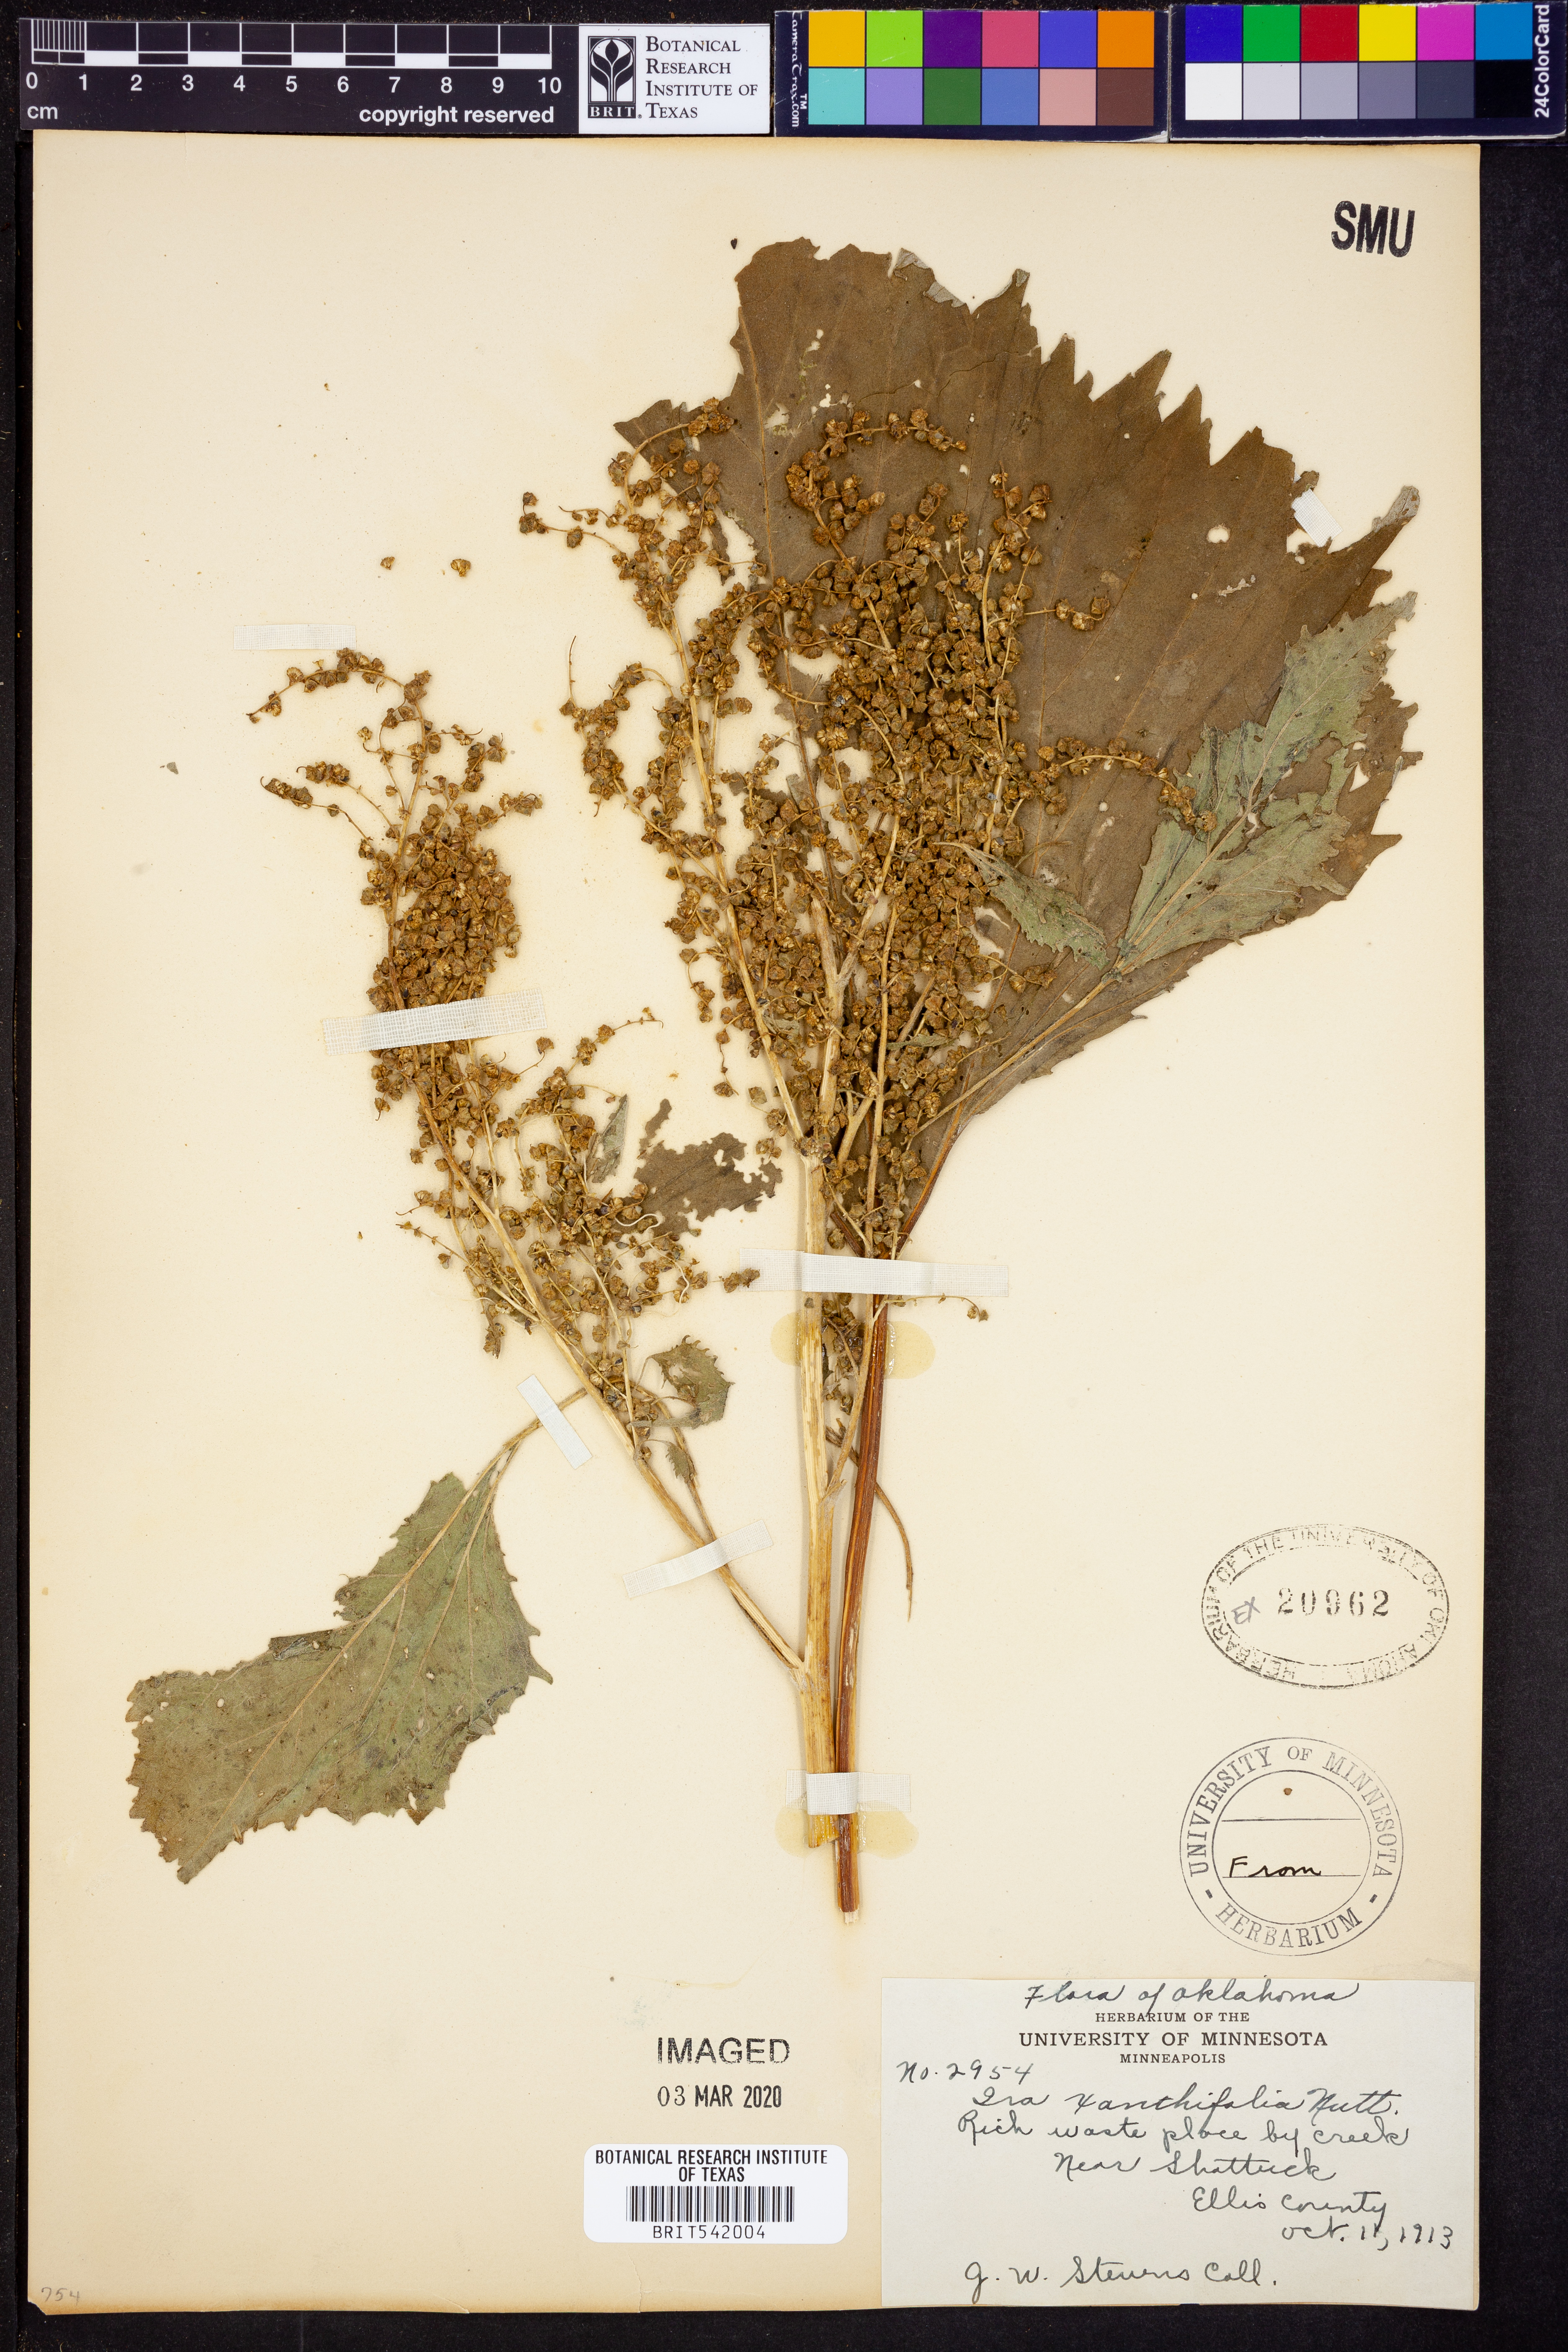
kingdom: Plantae
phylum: Tracheophyta
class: Magnoliopsida
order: Asterales
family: Asteraceae
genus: Cyclachaena
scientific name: Cyclachaena xanthiifolia
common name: Giant sumpweed
